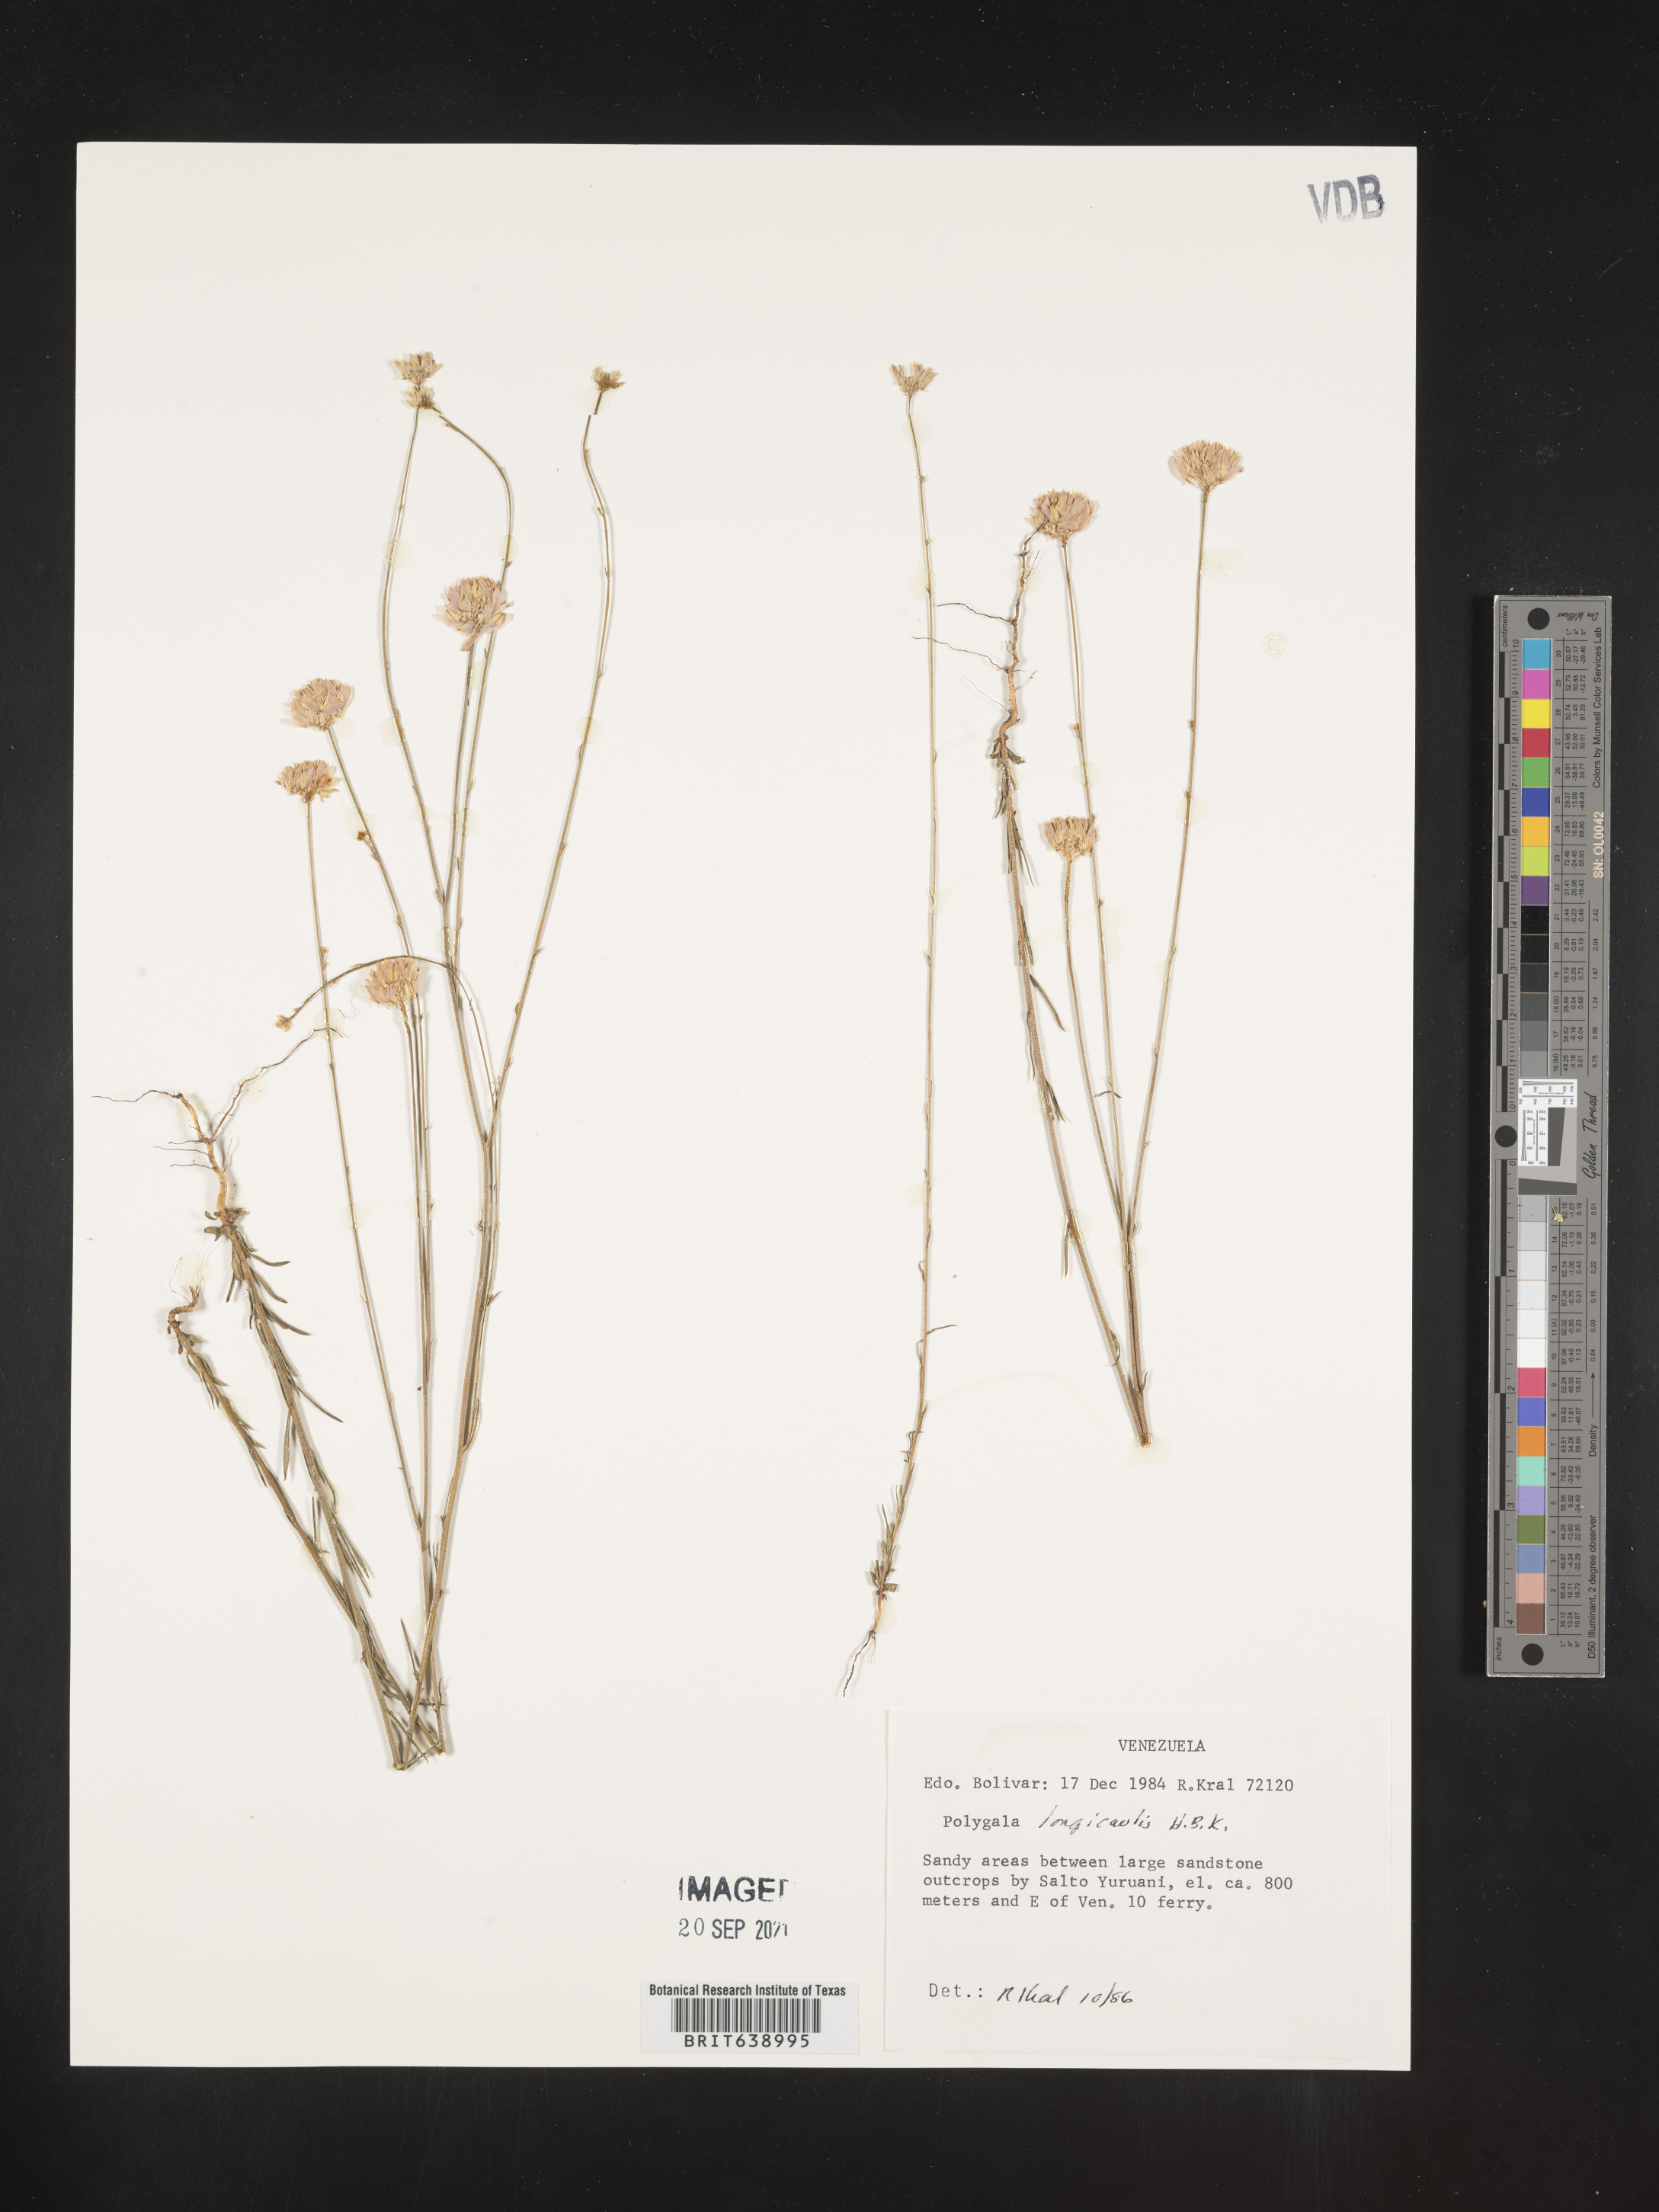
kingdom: Plantae
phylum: Tracheophyta
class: Magnoliopsida
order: Fabales
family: Polygalaceae
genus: Polygala
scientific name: Polygala
